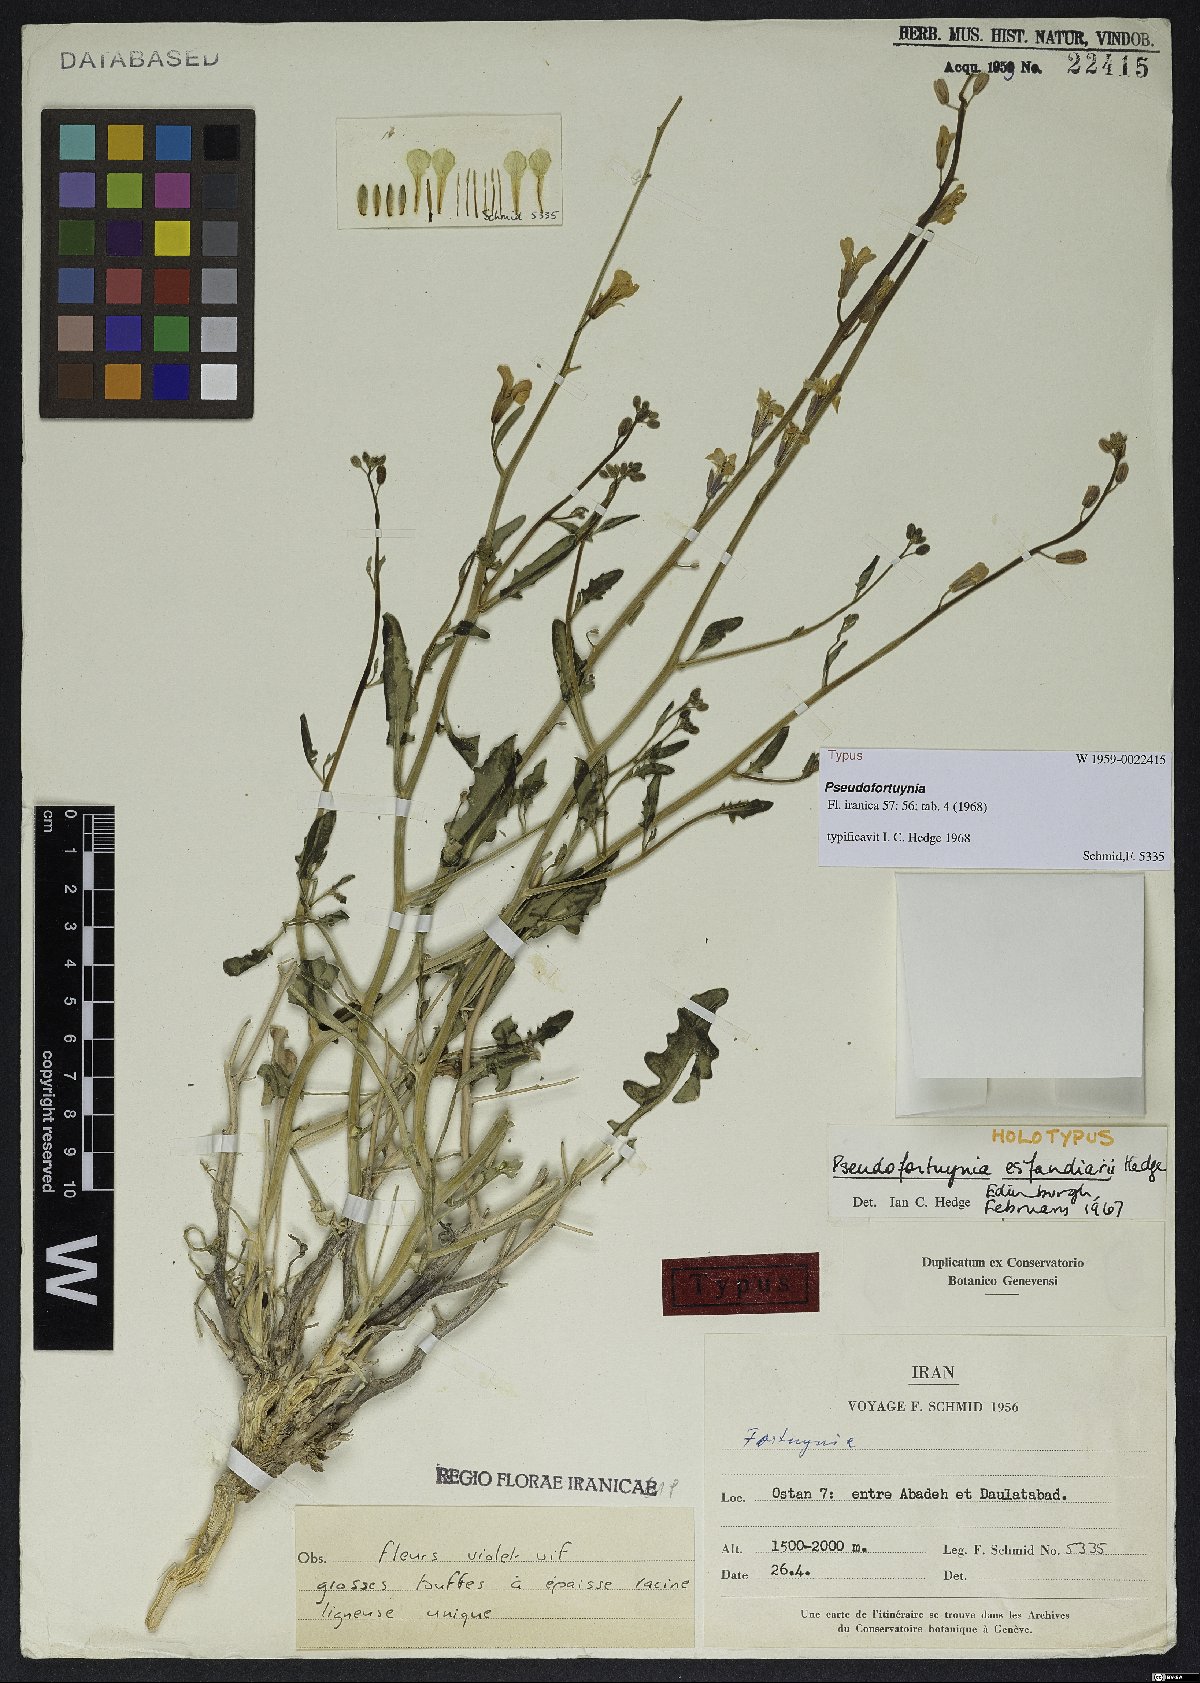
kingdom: Plantae
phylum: Tracheophyta
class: Magnoliopsida
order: Brassicales
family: Brassicaceae
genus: Sisymbrium
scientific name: Sisymbrium leucocladum
